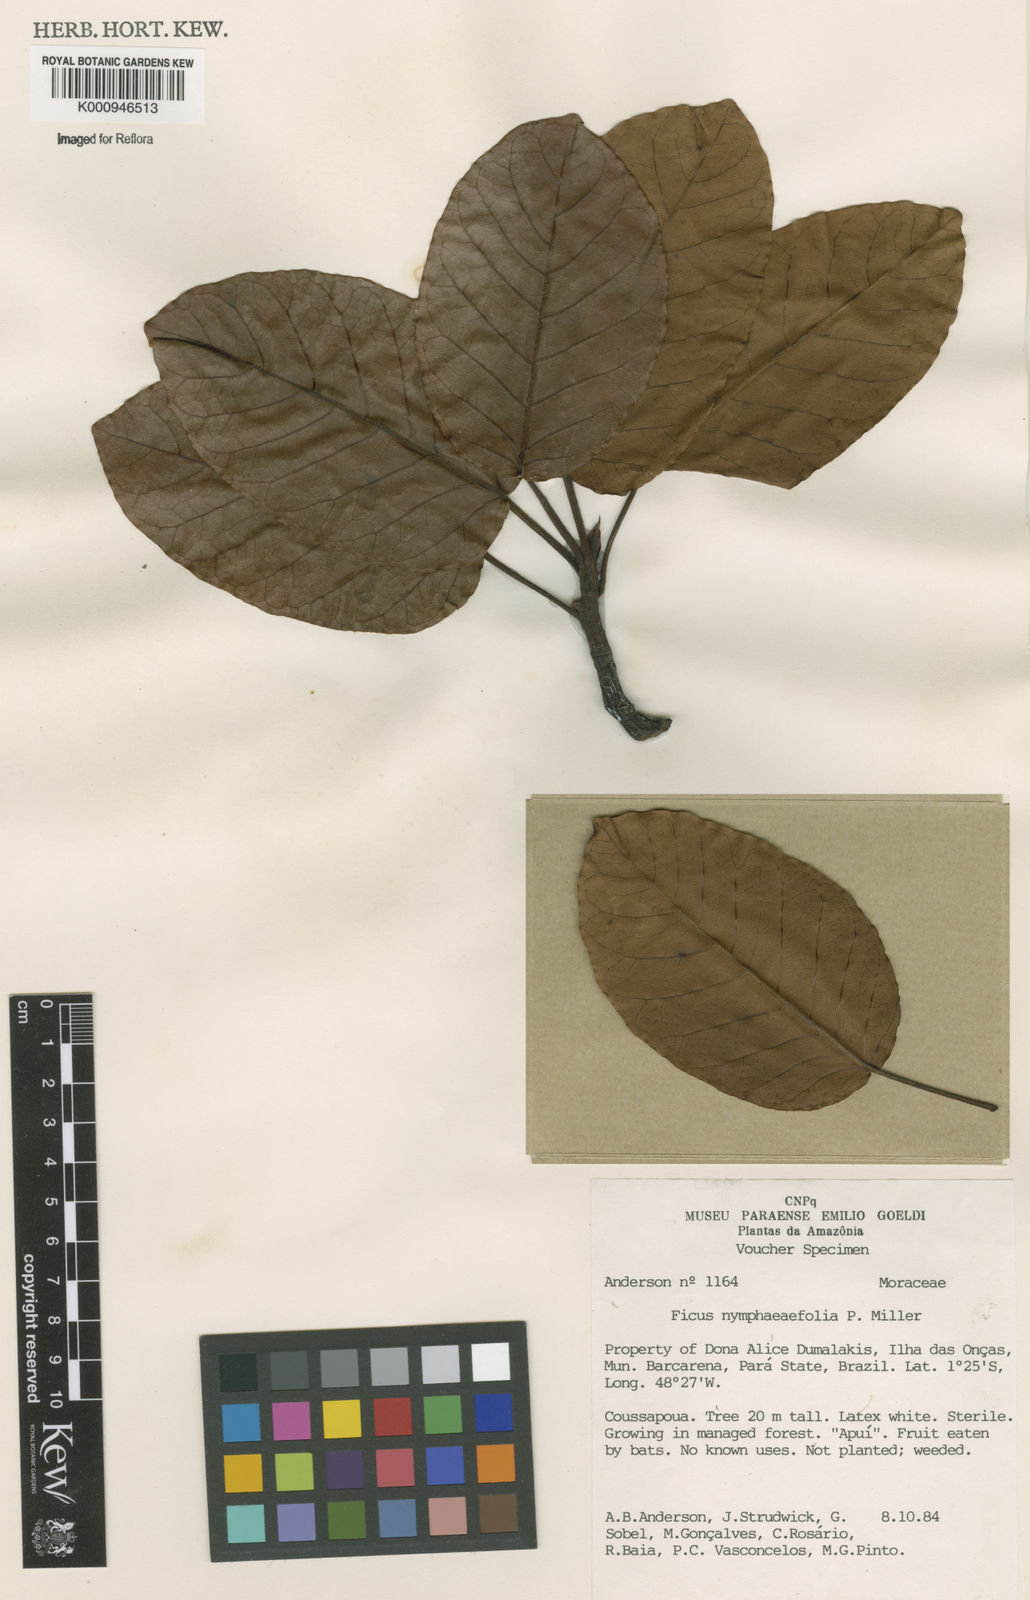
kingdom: Plantae
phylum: Tracheophyta
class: Magnoliopsida
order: Rosales
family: Moraceae
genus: Ficus
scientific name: Ficus
